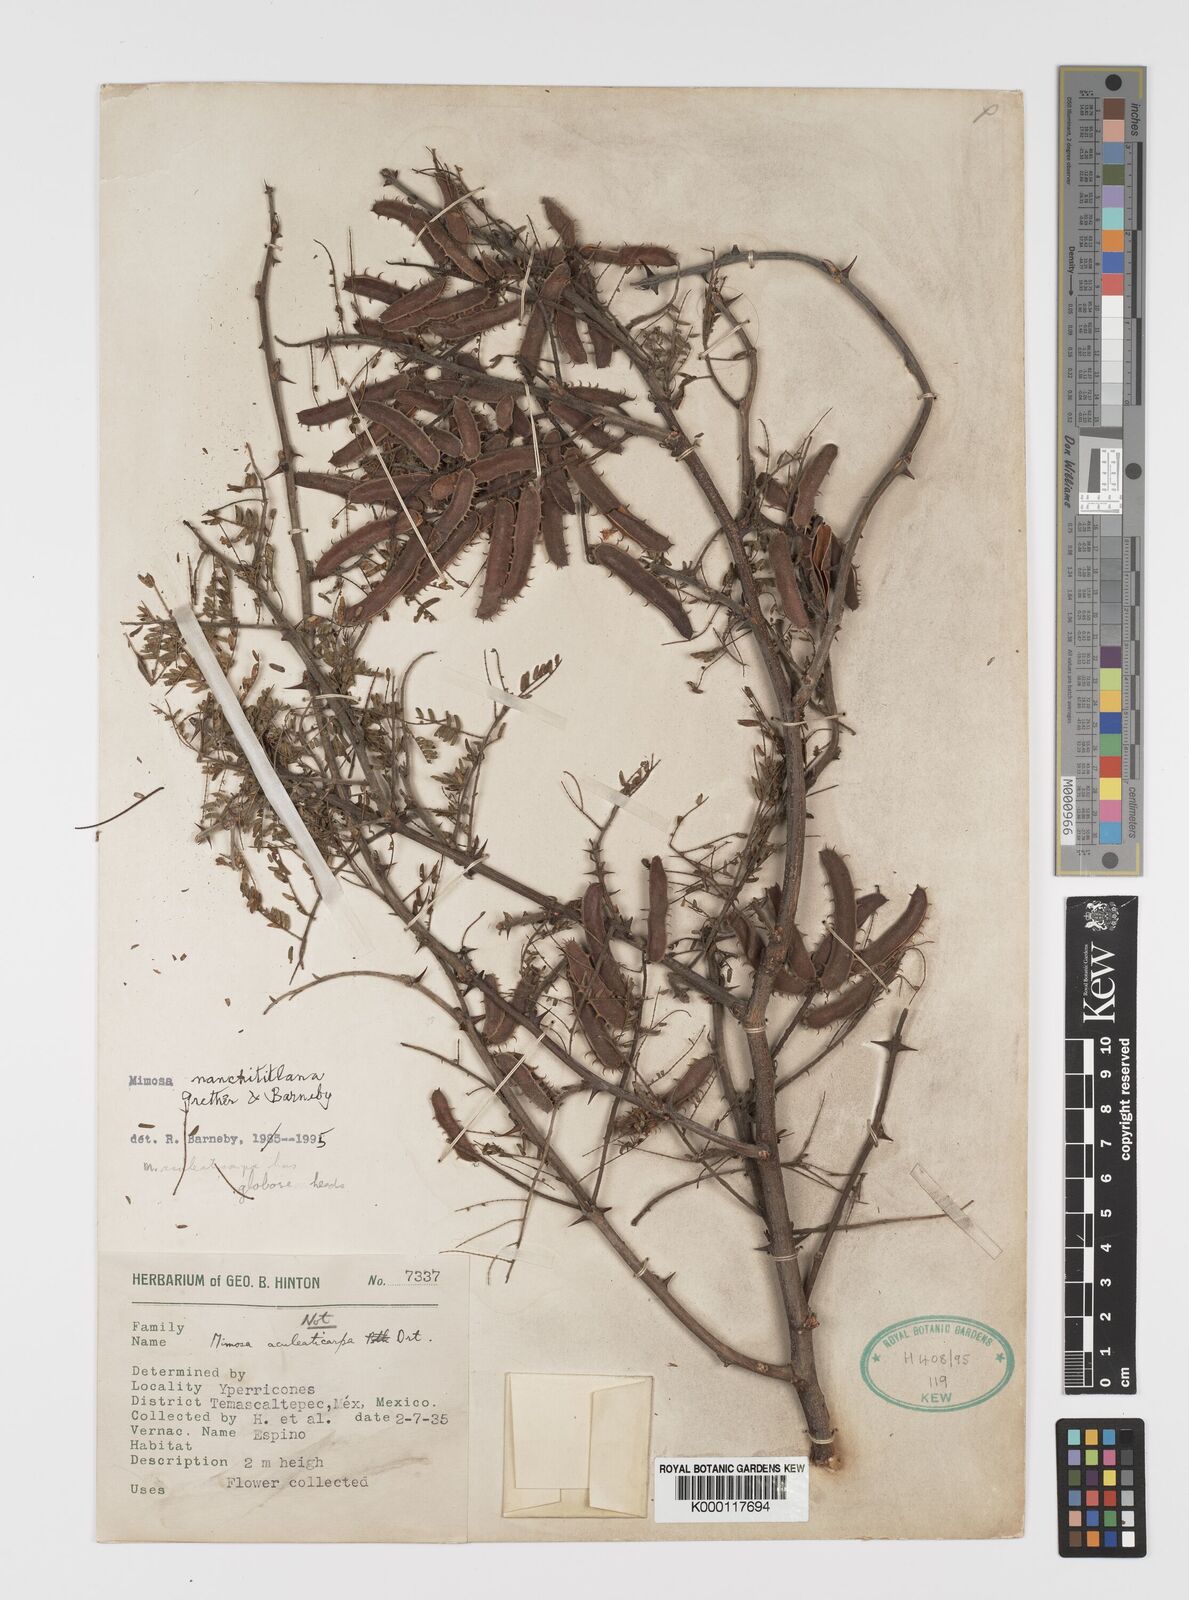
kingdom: Plantae
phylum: Tracheophyta
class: Magnoliopsida
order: Fabales
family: Fabaceae
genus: Mimosa
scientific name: Mimosa nanchititlana
